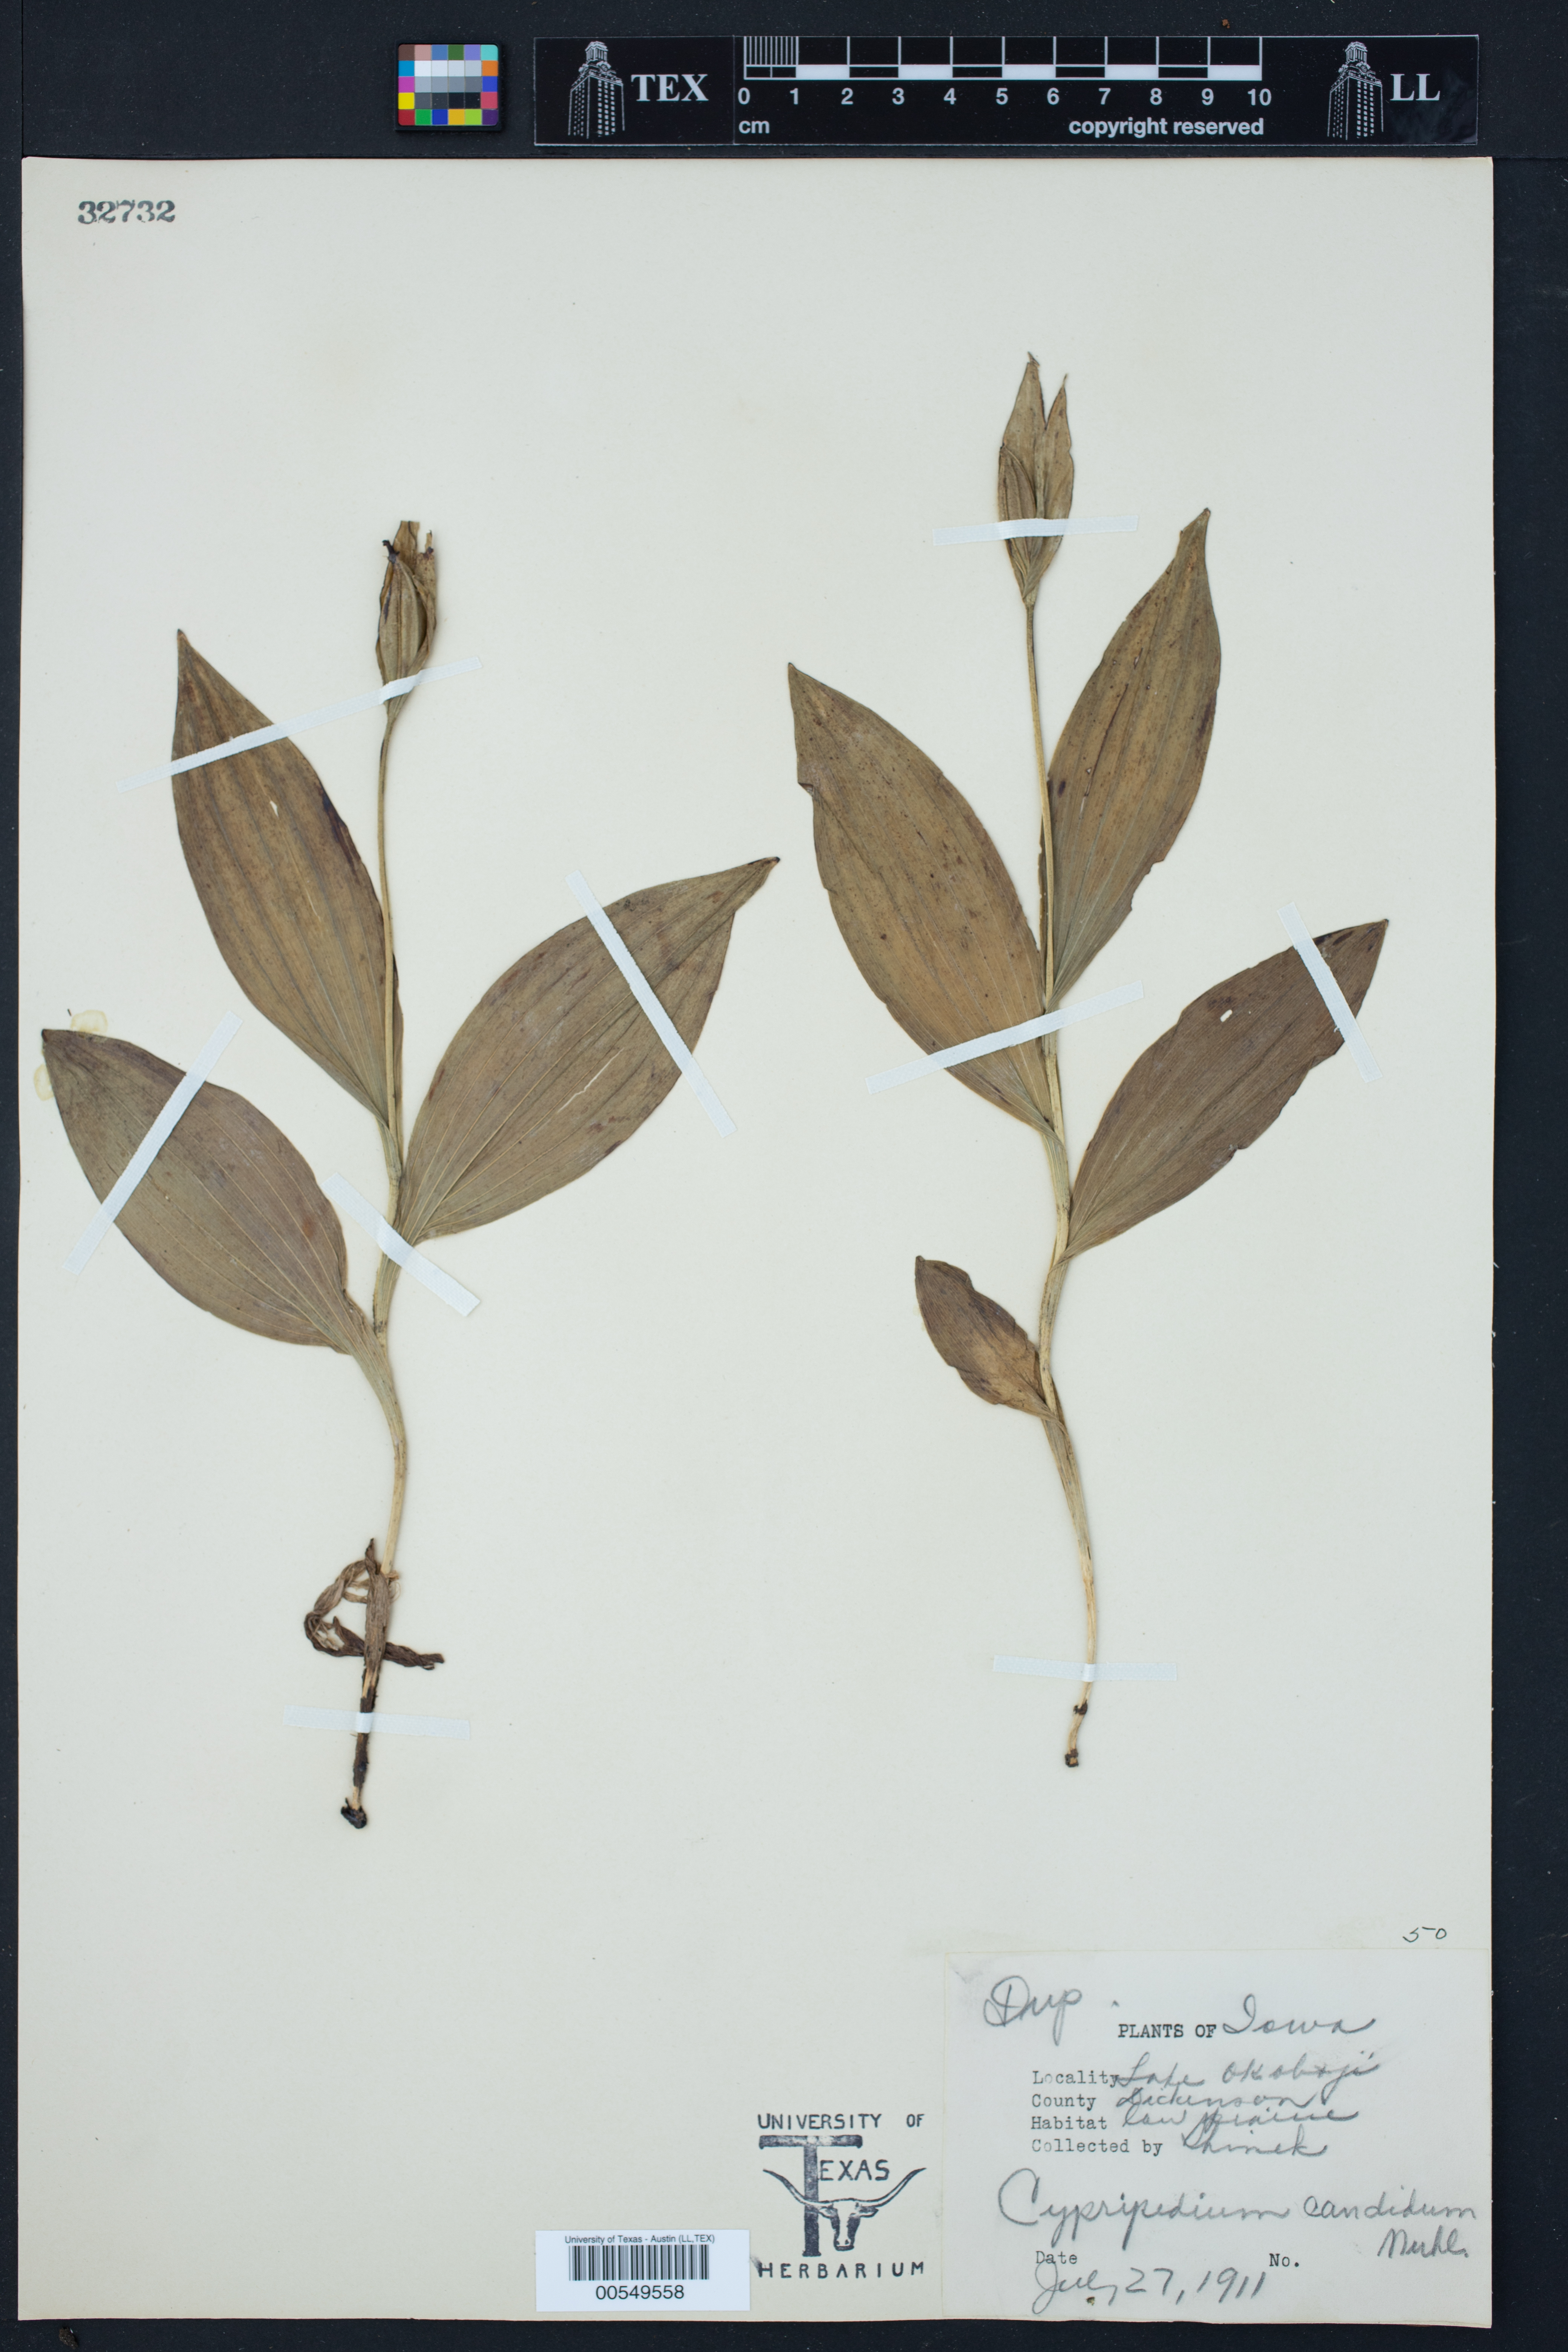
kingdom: Plantae
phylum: Tracheophyta
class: Liliopsida
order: Asparagales
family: Orchidaceae
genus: Cypripedium
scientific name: Cypripedium candidum
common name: White lady's-slipper
